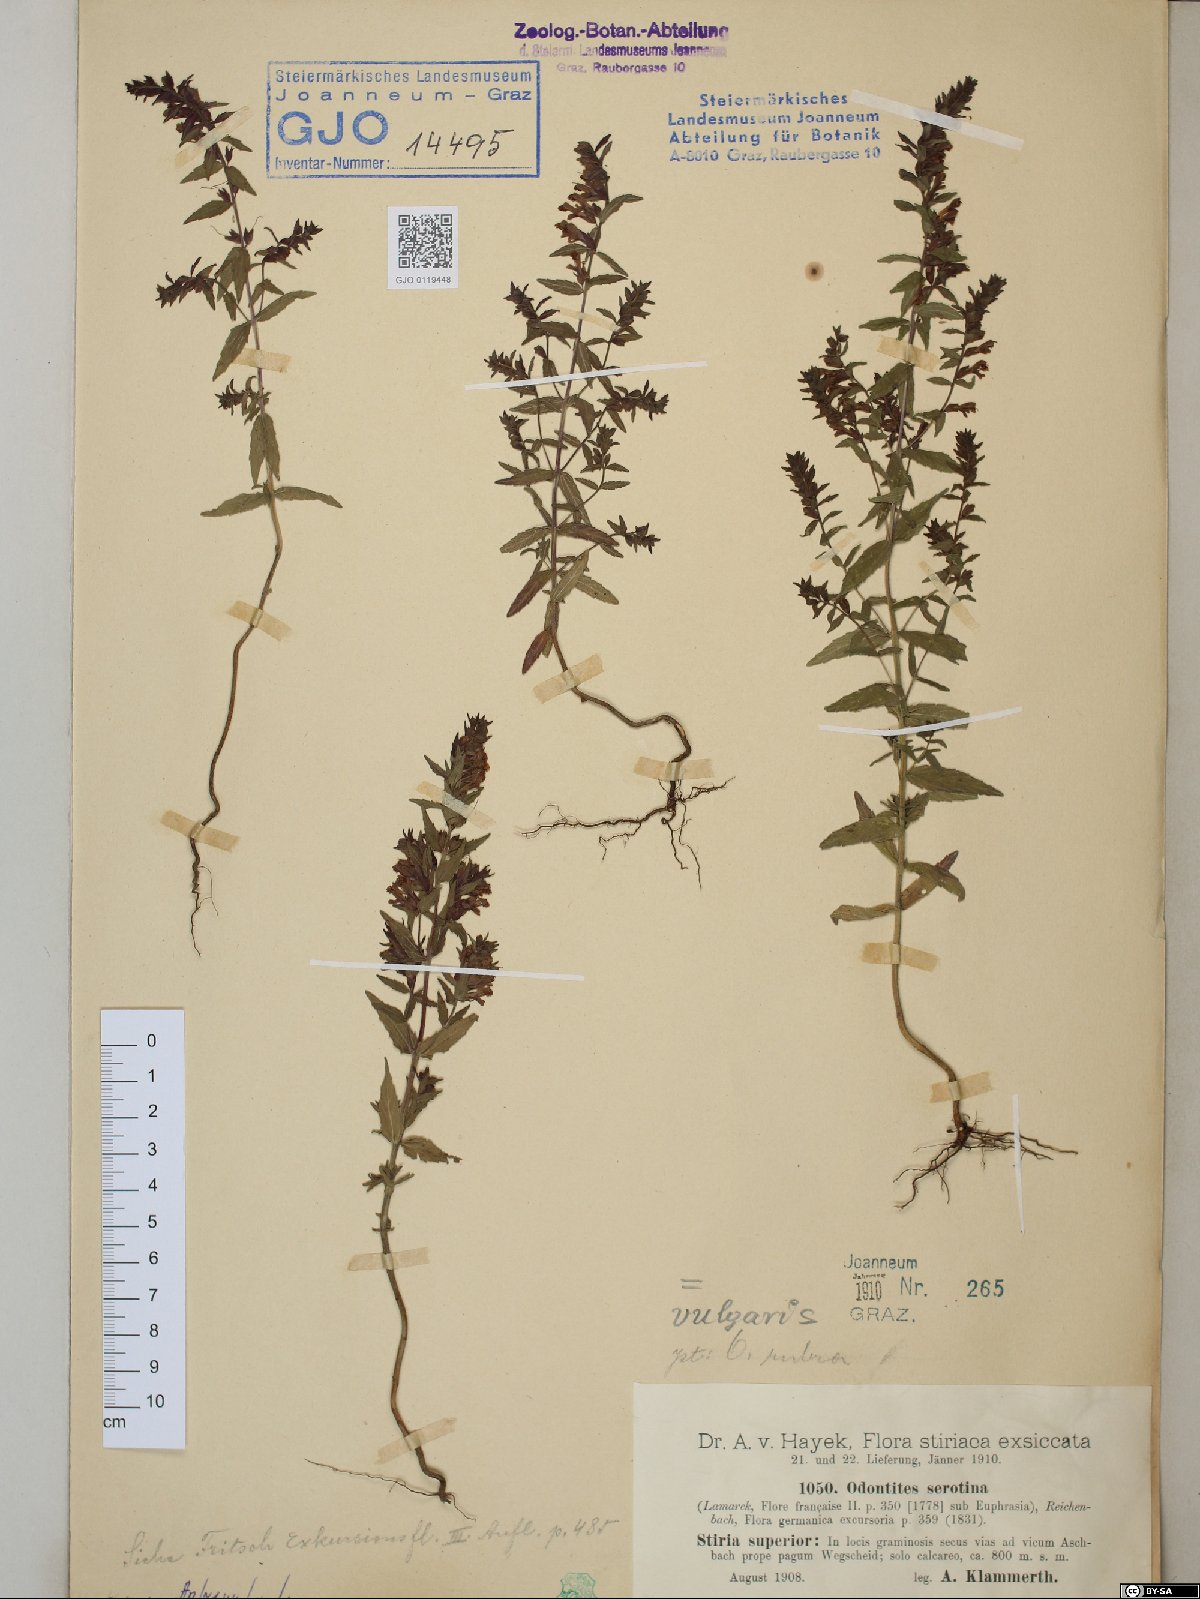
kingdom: Plantae
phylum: Tracheophyta
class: Magnoliopsida
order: Lamiales
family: Orobanchaceae
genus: Odontites
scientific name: Odontites vulgaris
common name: Broomrape
